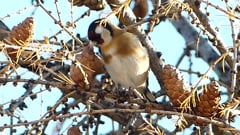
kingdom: Animalia
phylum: Chordata
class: Aves
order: Passeriformes
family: Fringillidae
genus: Carduelis
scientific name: Carduelis carduelis
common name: European goldfinch
